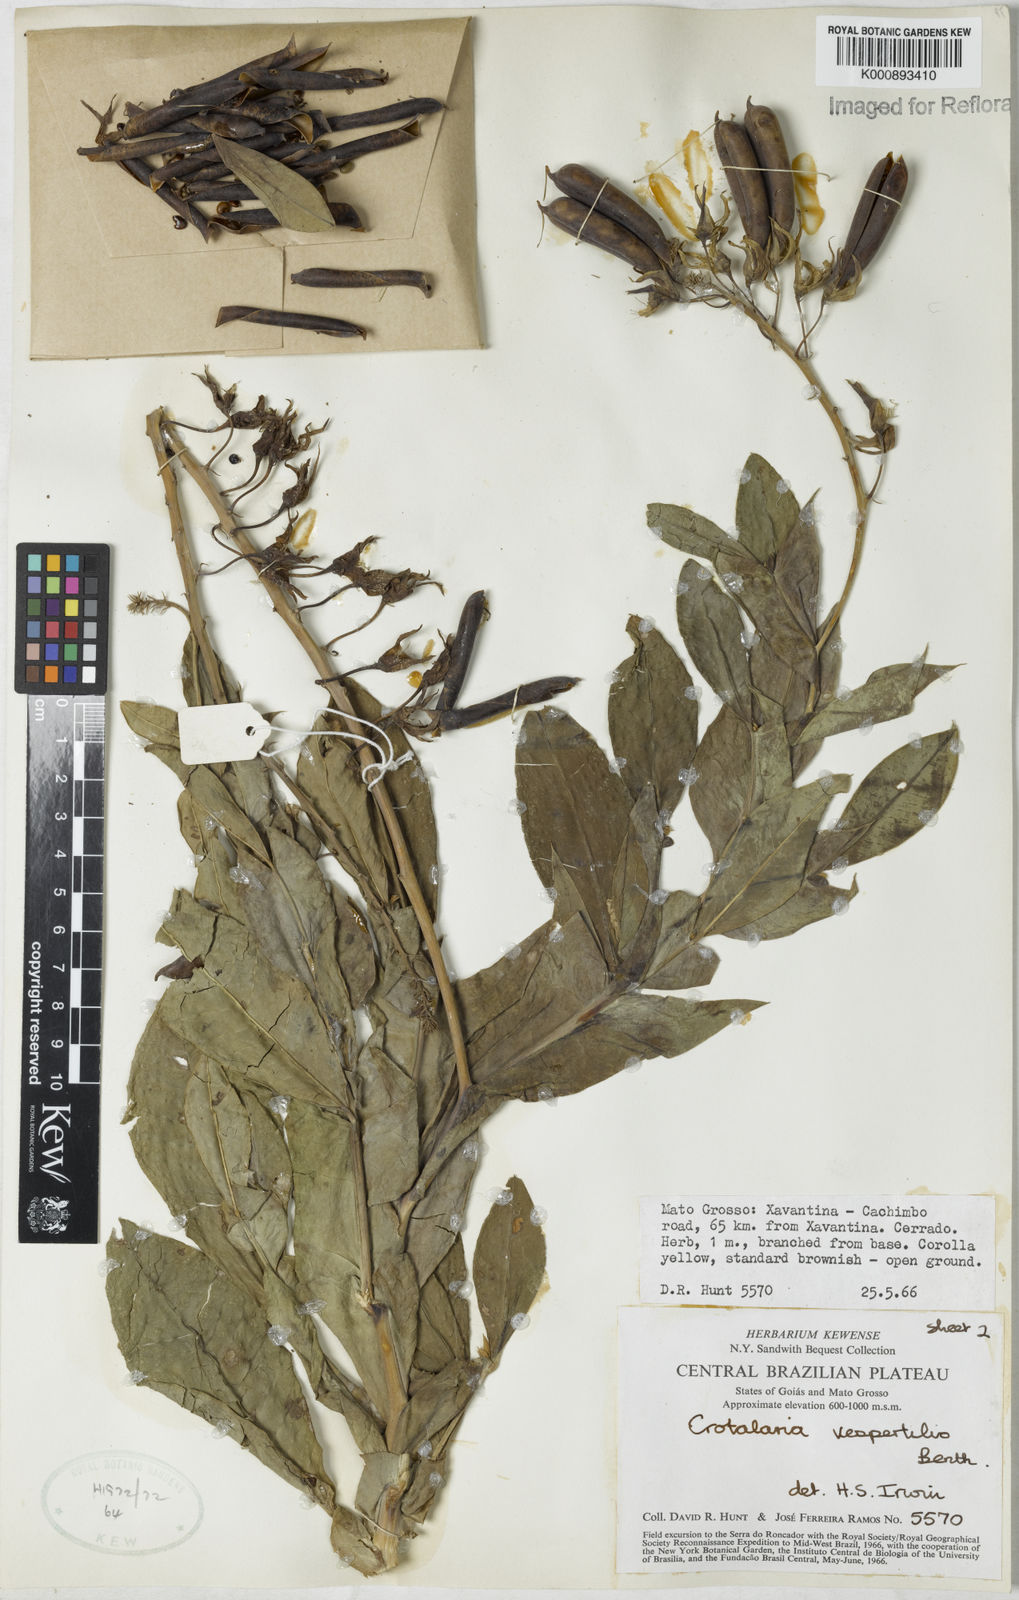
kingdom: Plantae
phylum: Tracheophyta
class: Magnoliopsida
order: Fabales
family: Fabaceae
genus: Crotalaria
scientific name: Crotalaria vespertilio
